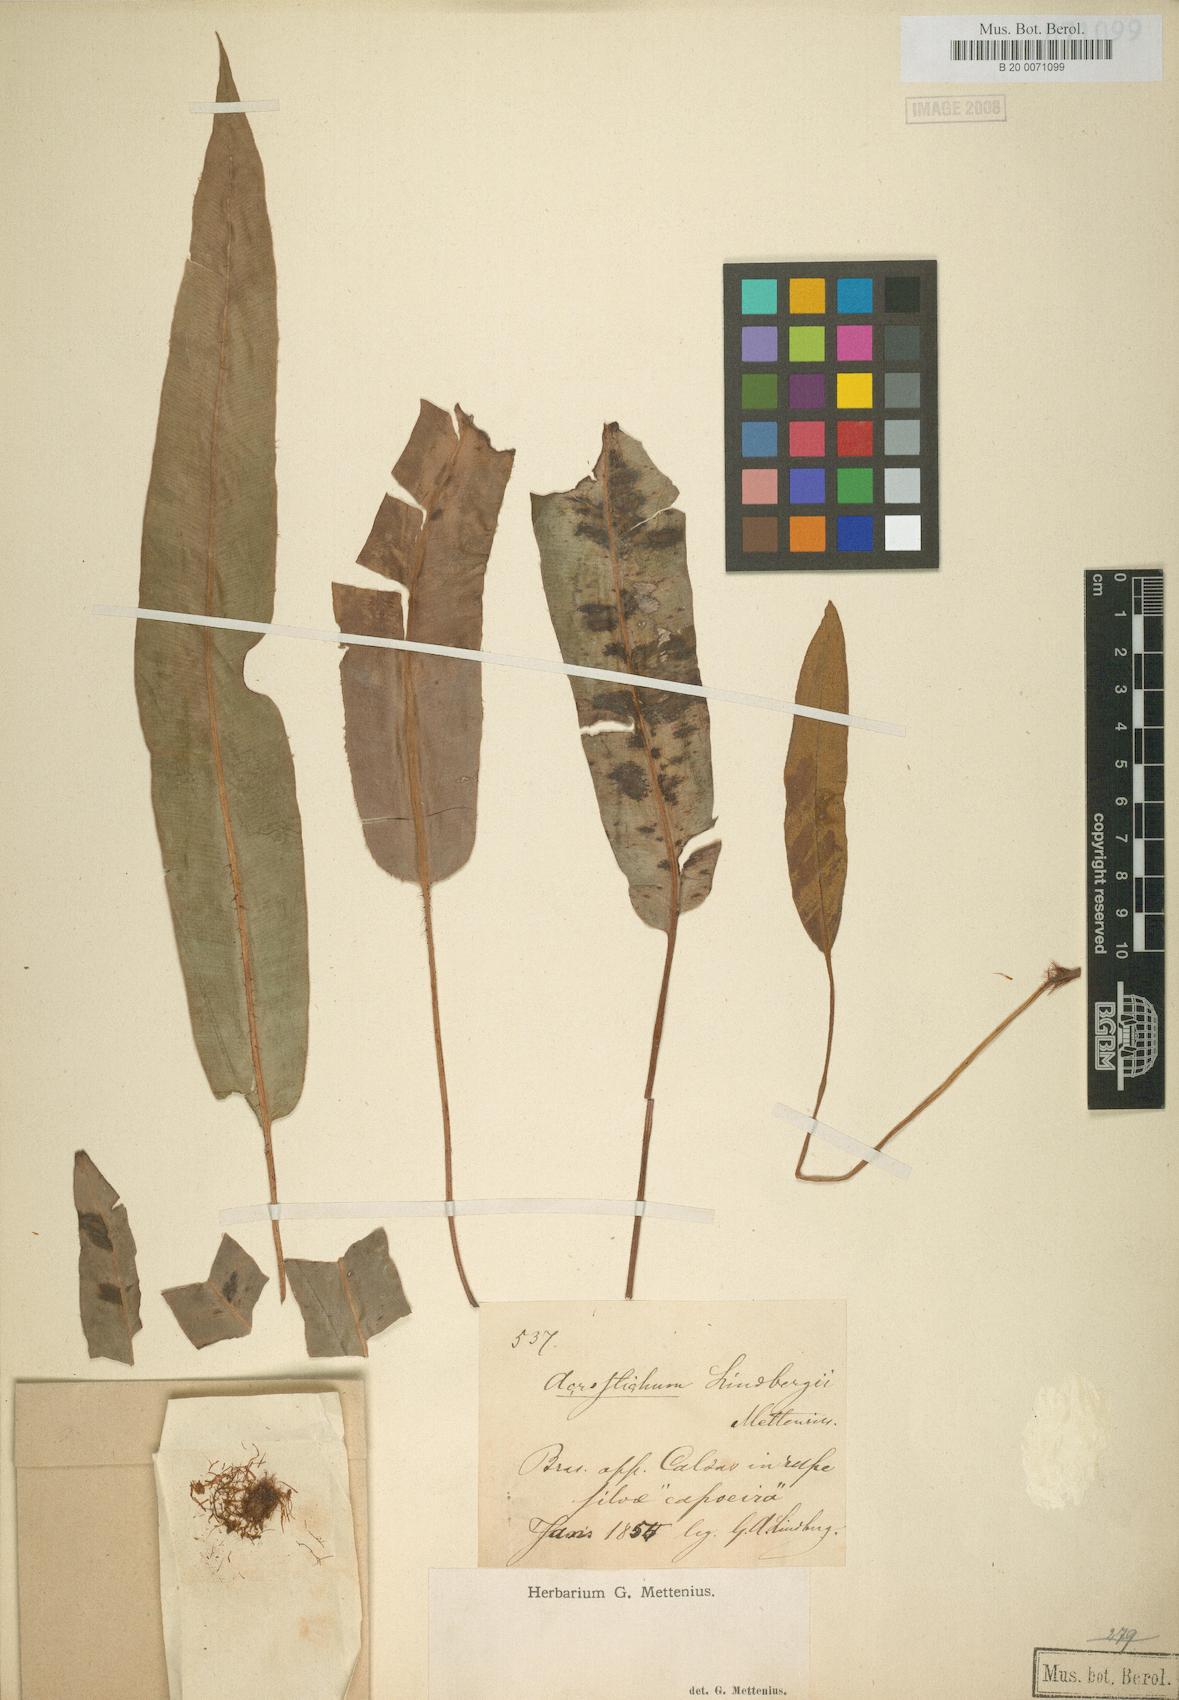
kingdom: Plantae
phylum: Tracheophyta
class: Polypodiopsida
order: Polypodiales
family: Dryopteridaceae
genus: Elaphoglossum
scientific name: Elaphoglossum hybridum
